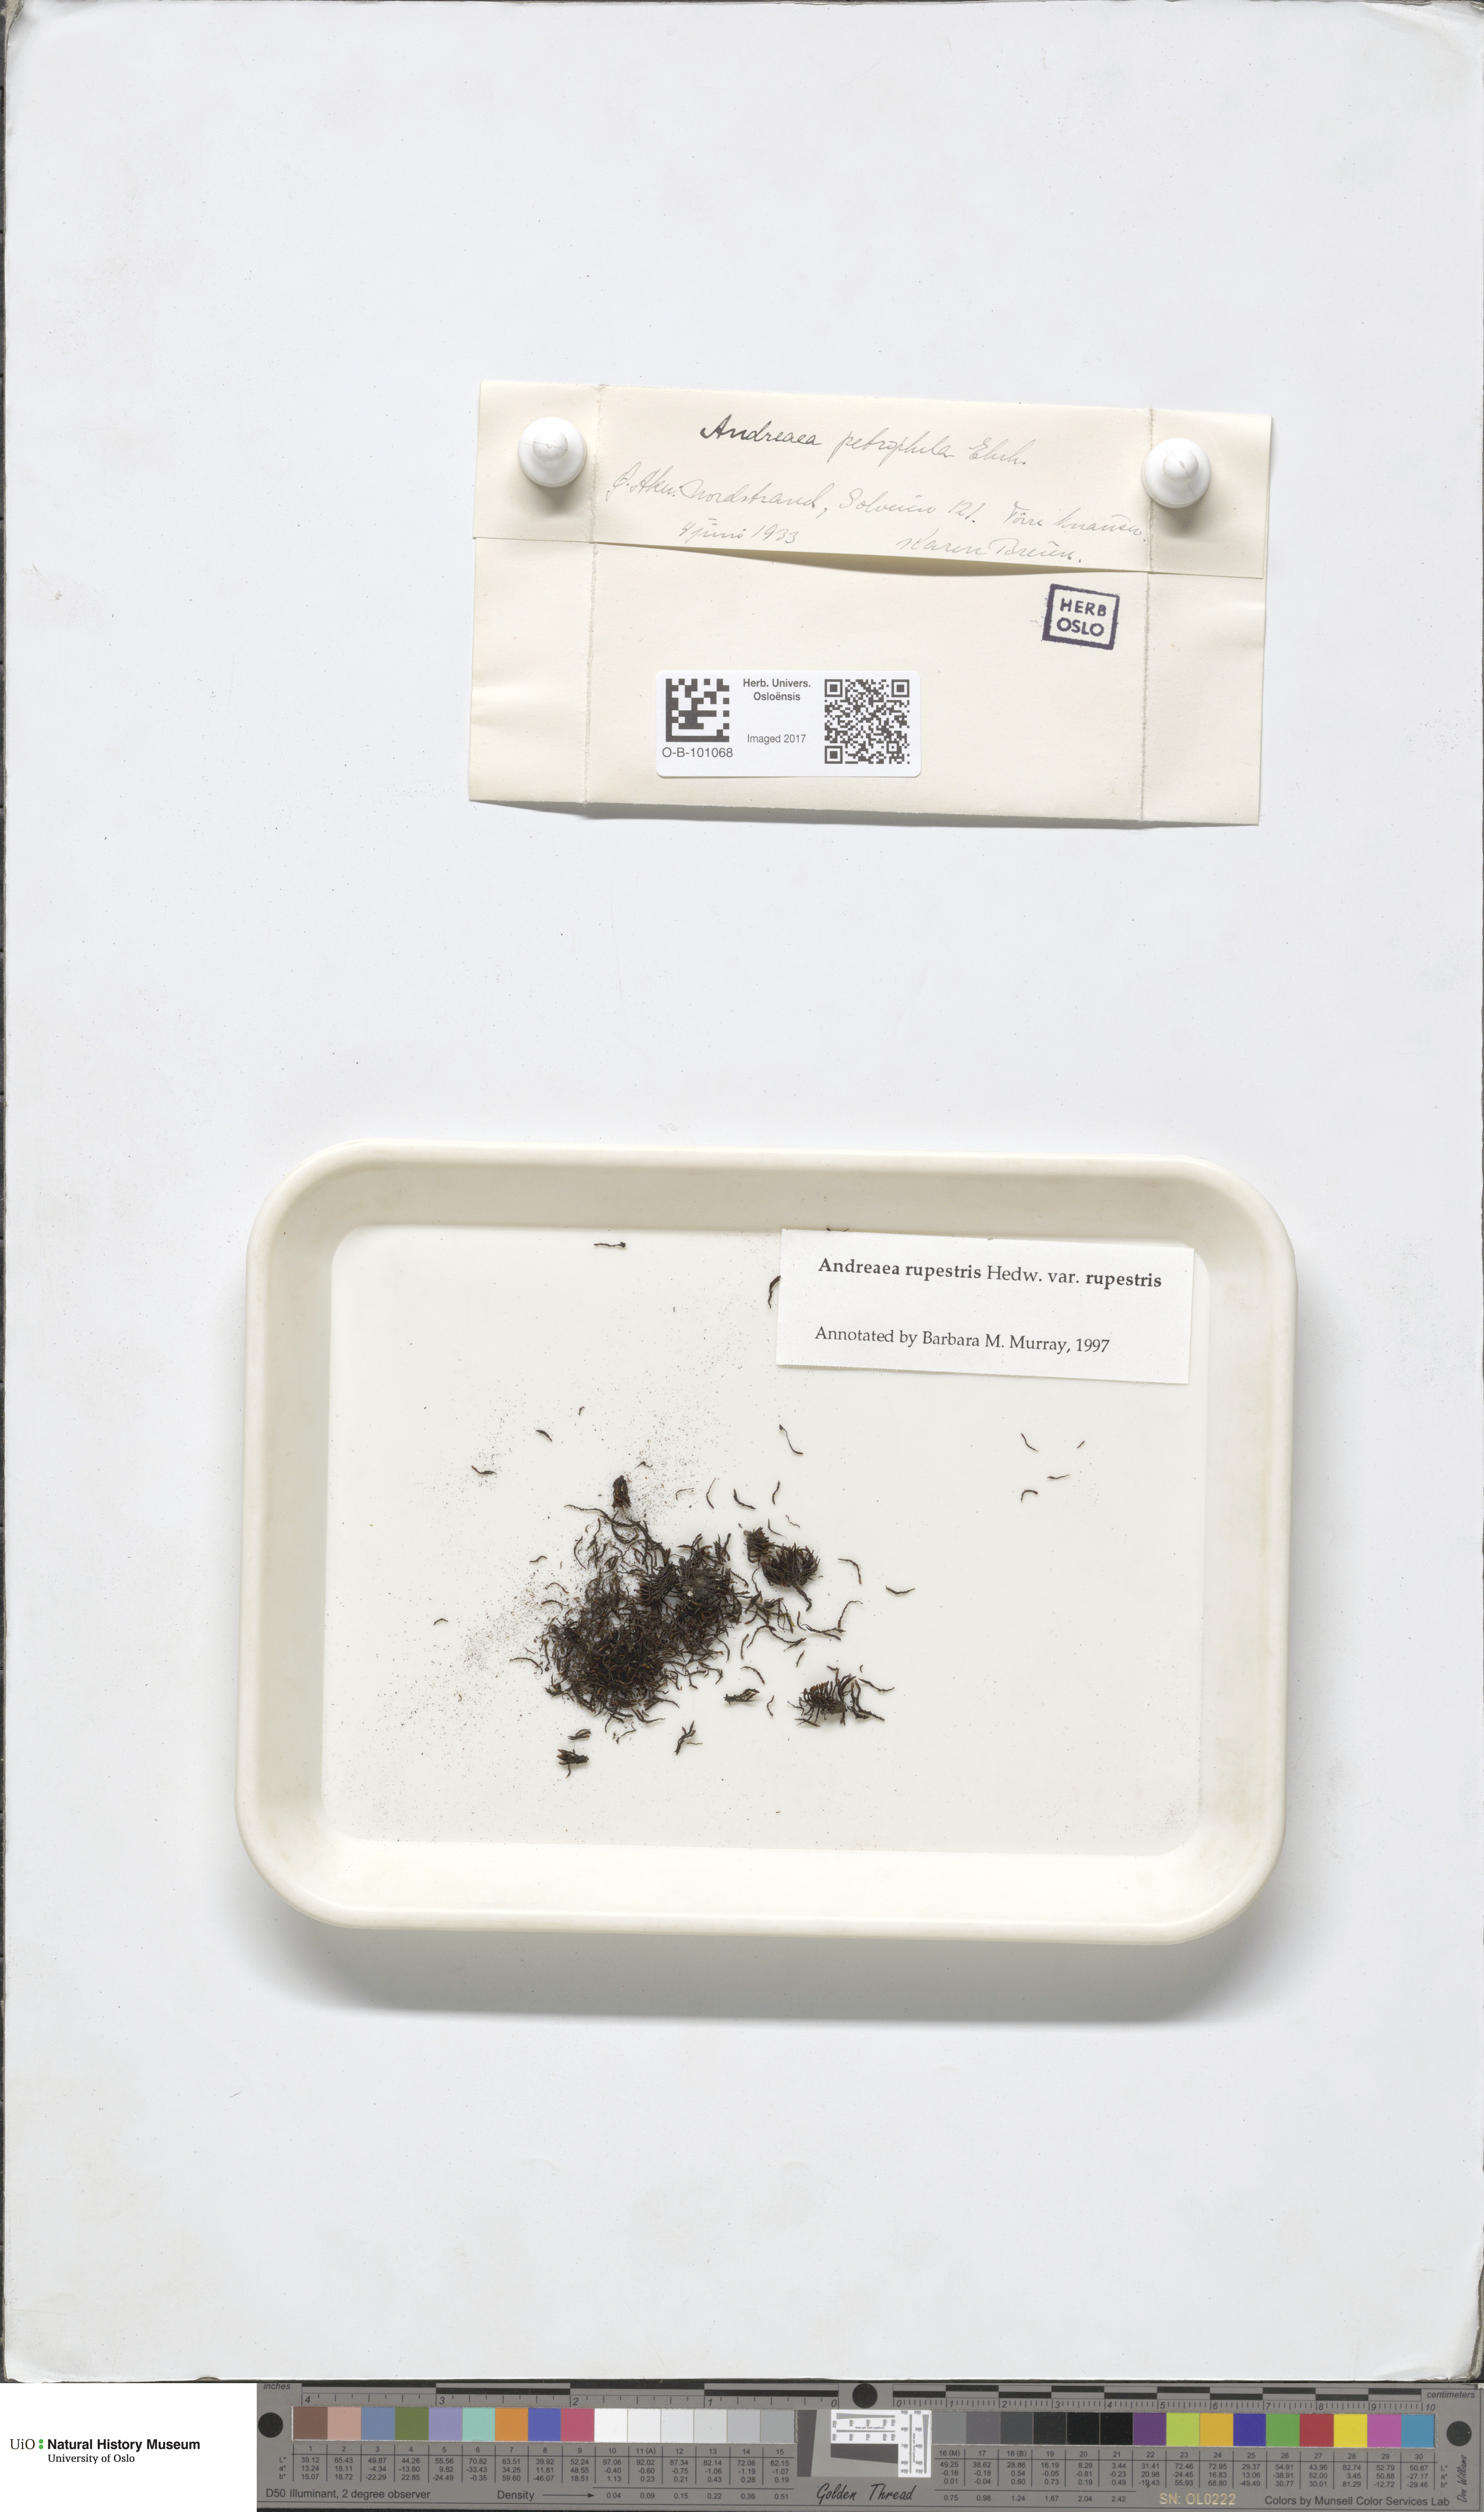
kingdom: Plantae
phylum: Bryophyta
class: Andreaeopsida
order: Andreaeales
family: Andreaeaceae
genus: Andreaea
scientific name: Andreaea rupestris
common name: Black rock moss
